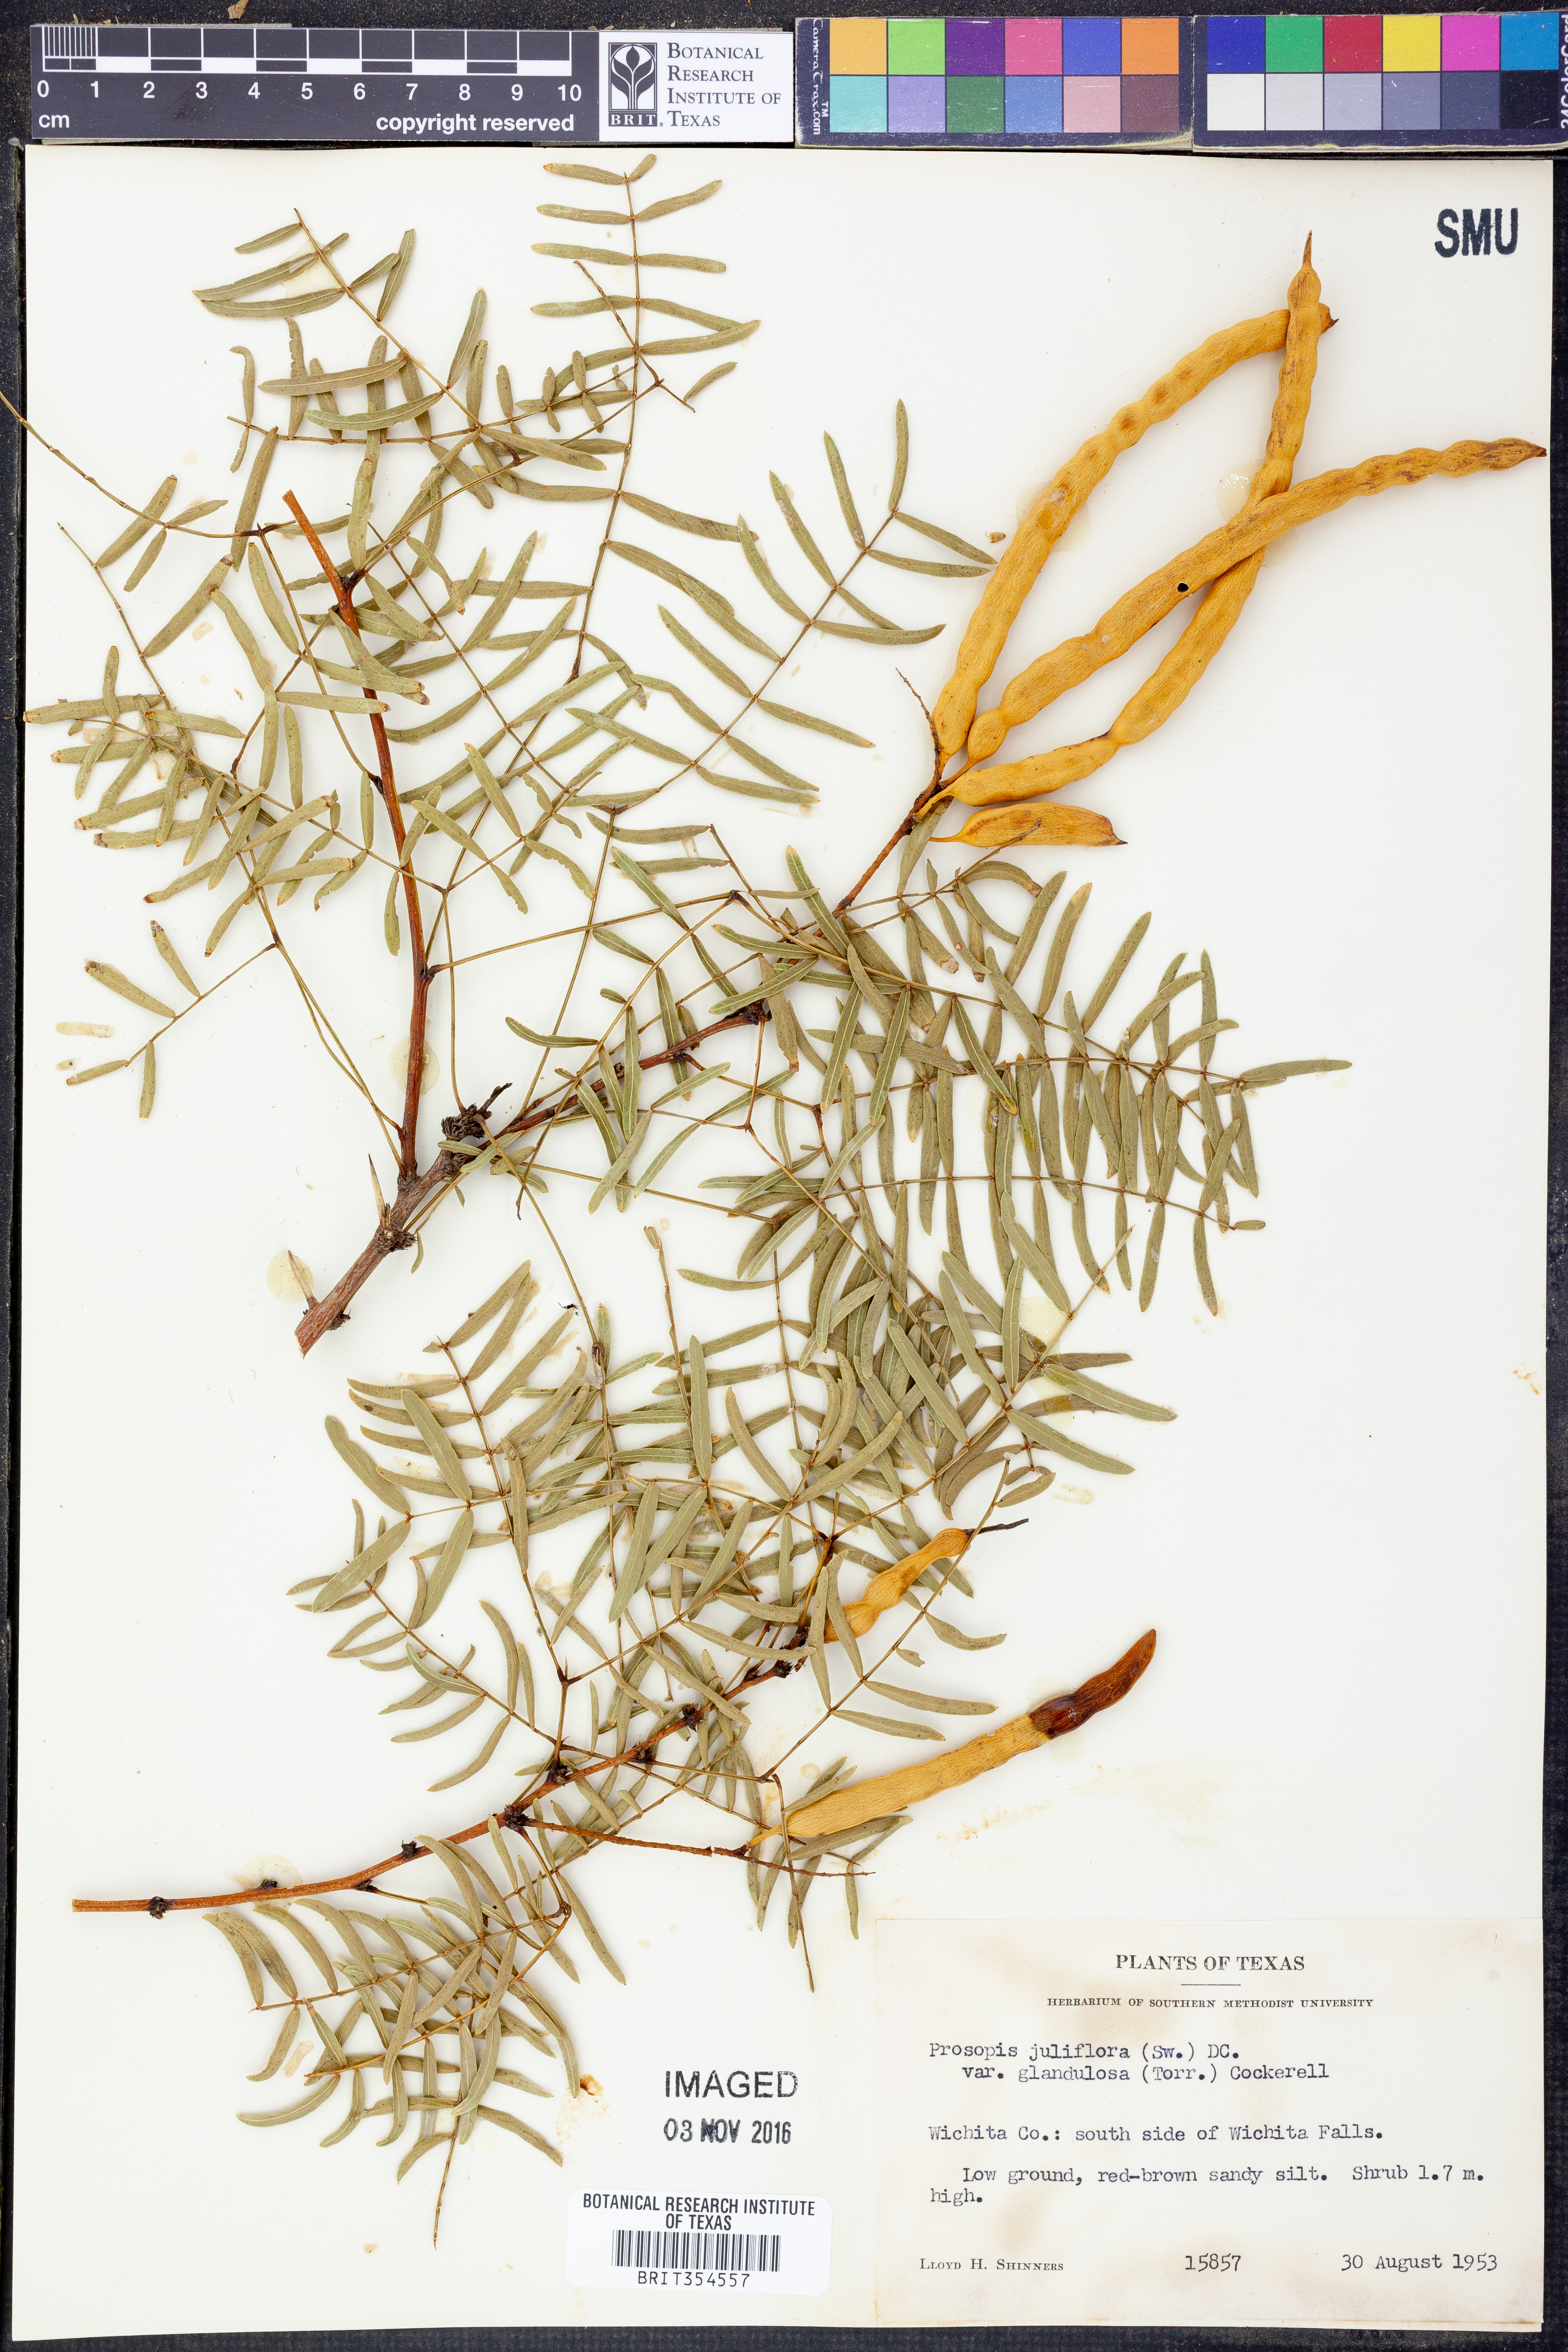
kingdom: Plantae
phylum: Tracheophyta
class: Magnoliopsida
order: Fabales
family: Fabaceae
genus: Prosopis
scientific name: Prosopis glandulosa
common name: Honey mesquite
